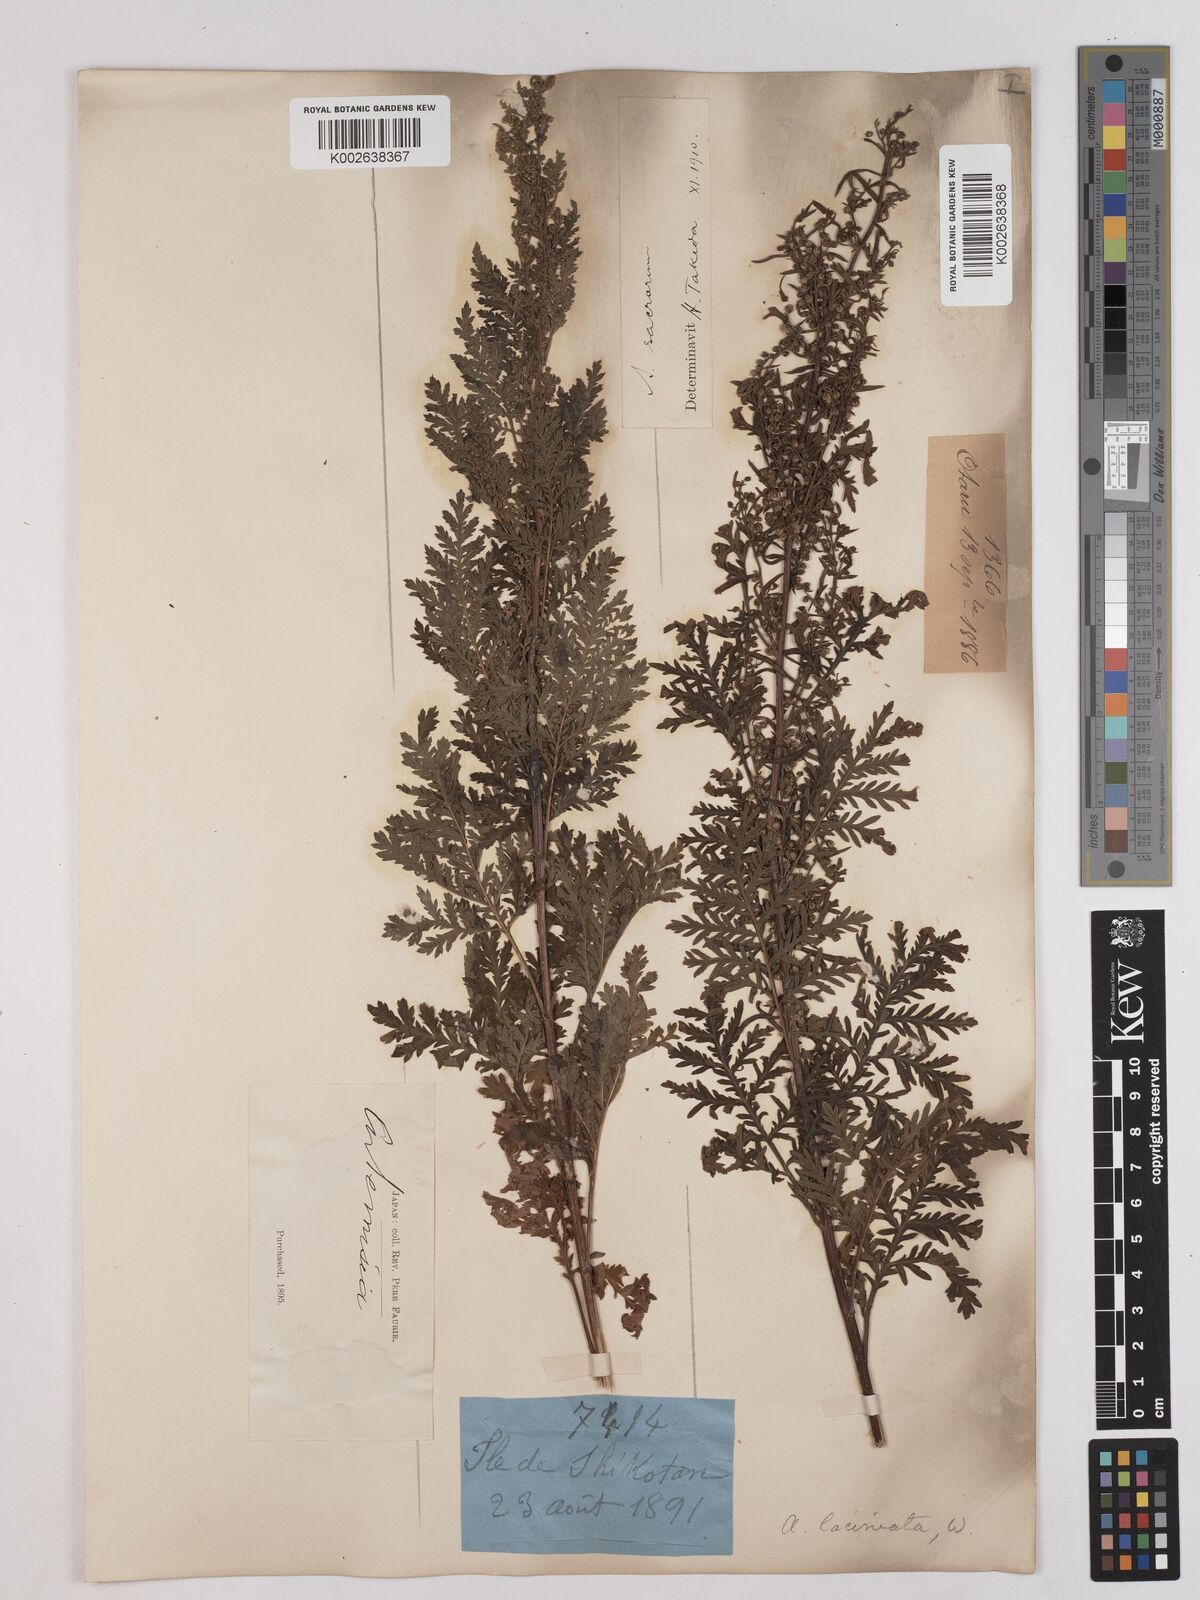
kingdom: Plantae
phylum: Tracheophyta
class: Magnoliopsida
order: Asterales
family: Asteraceae
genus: Artemisia
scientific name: Artemisia gmelinii
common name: Gmelin's wormwood
